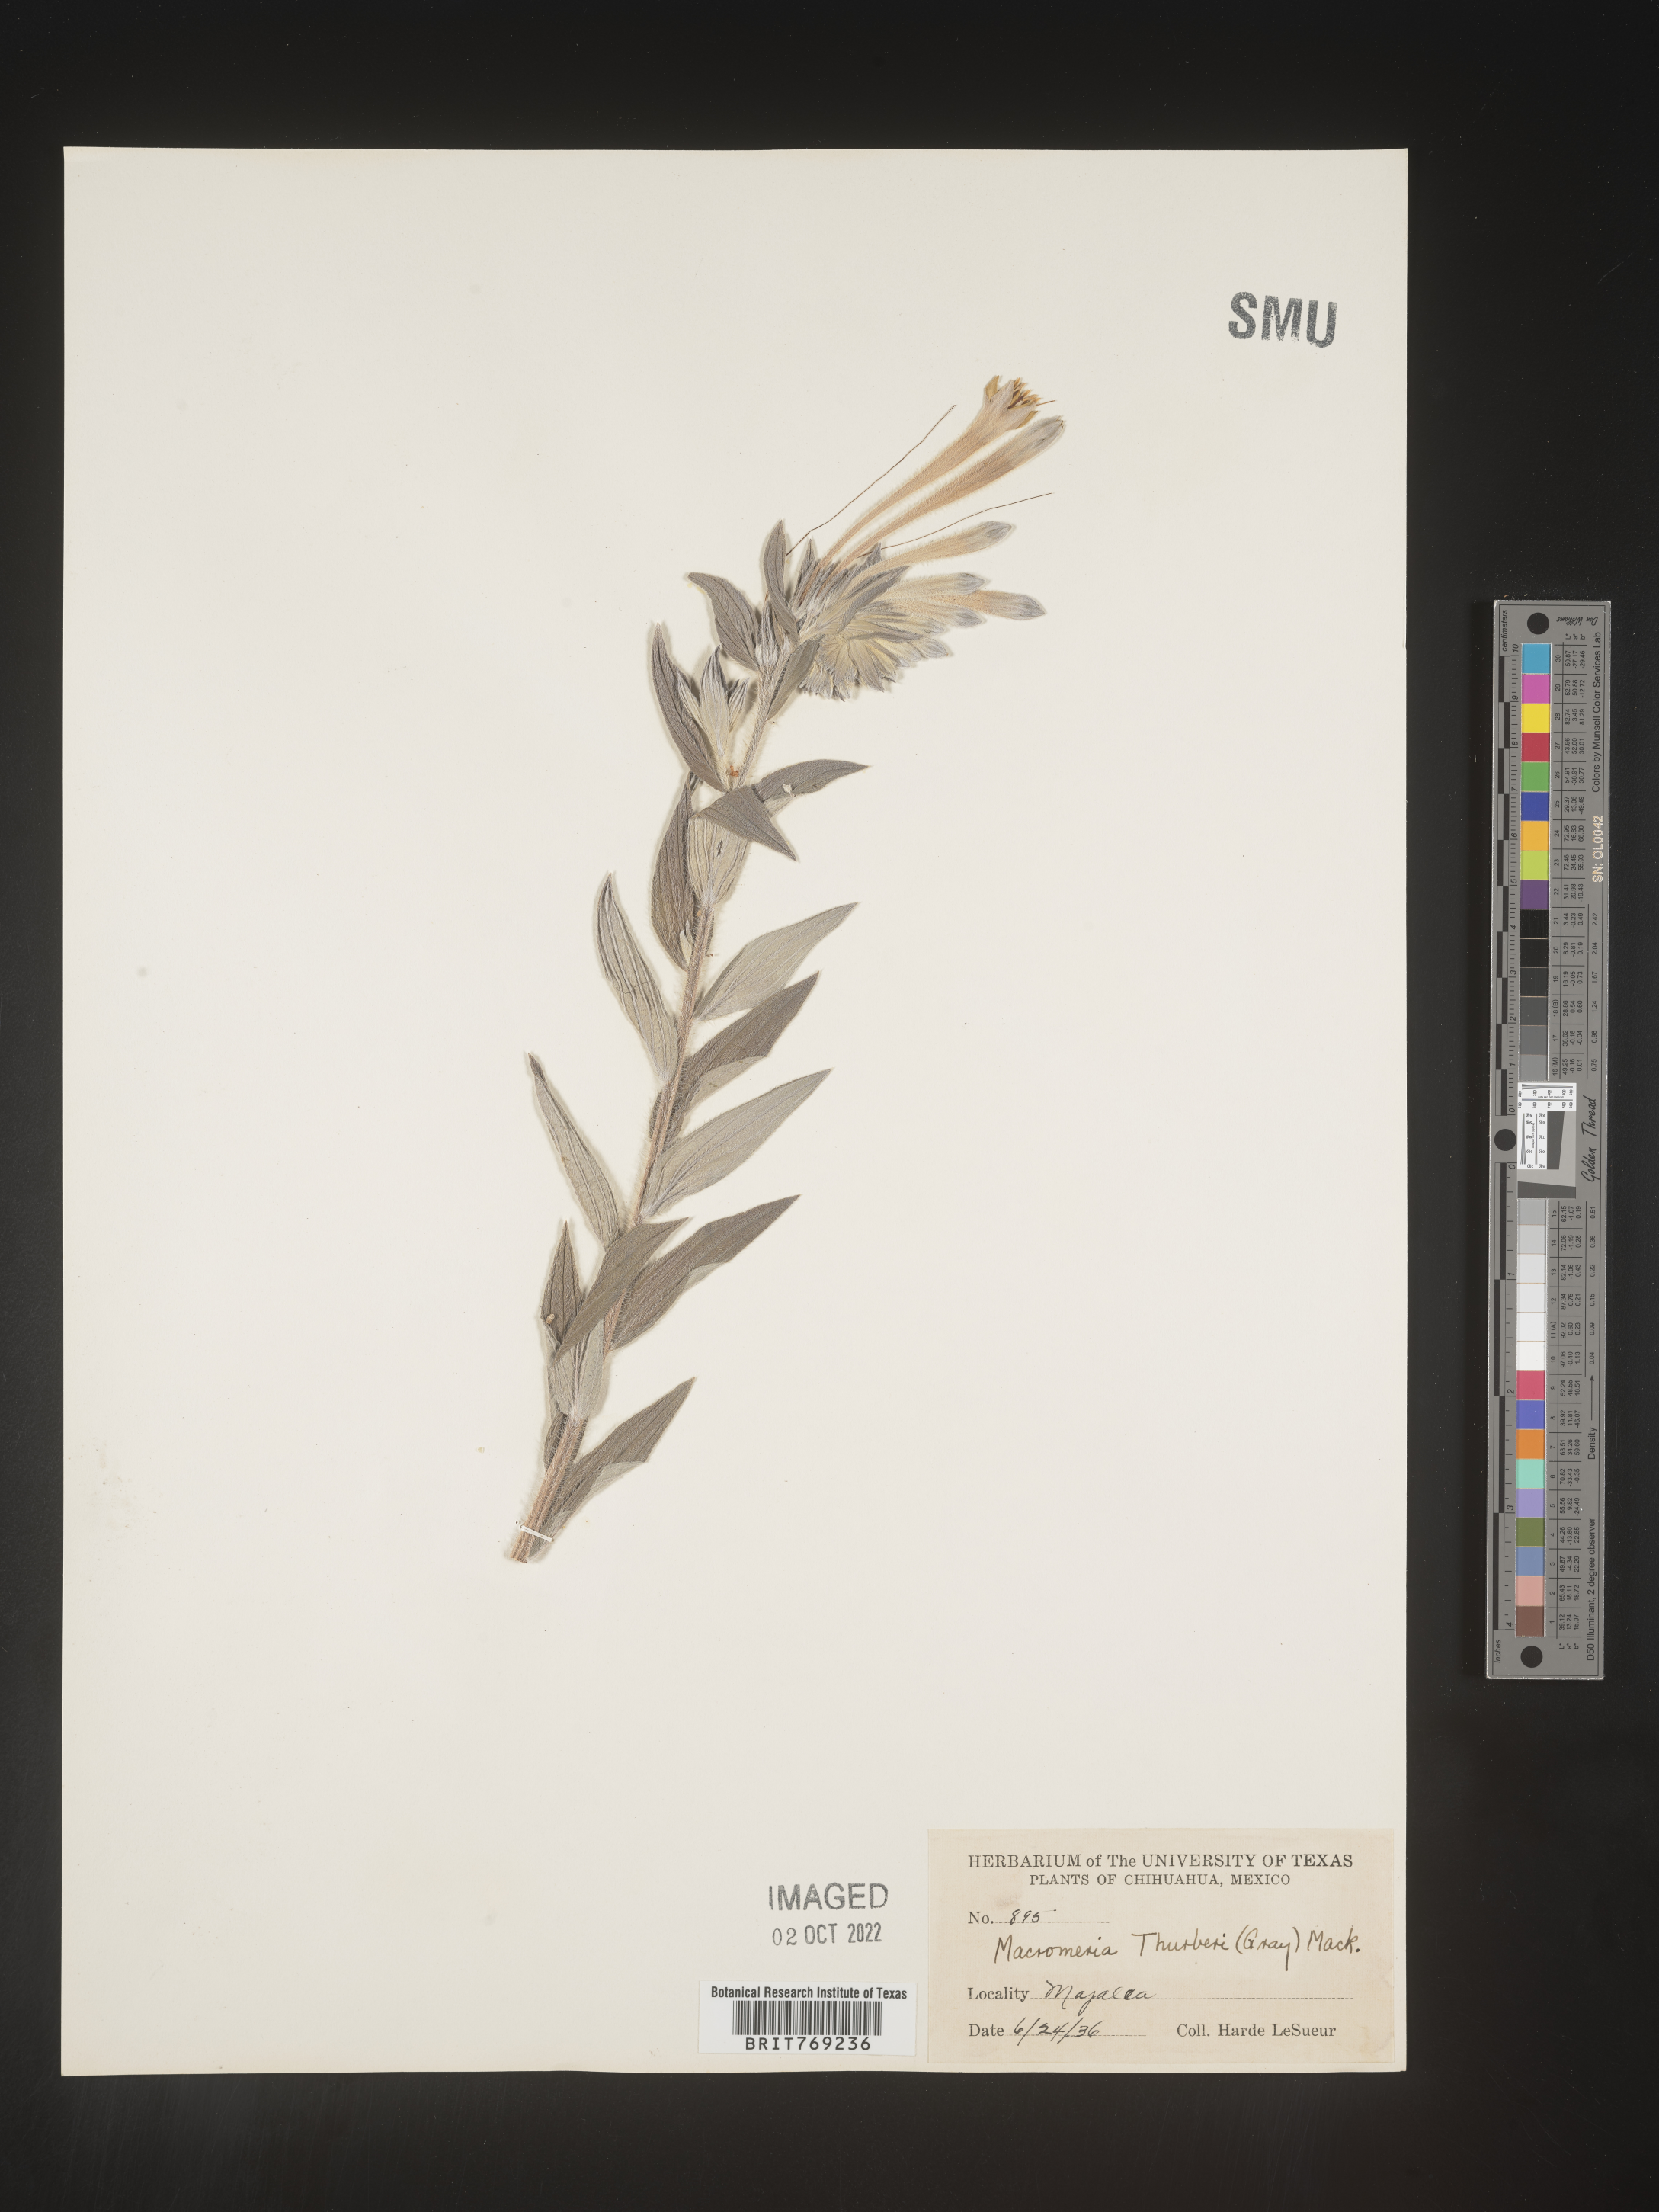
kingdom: Animalia
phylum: Arthropoda
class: Insecta
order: Hymenoptera
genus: Macromeria
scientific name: Macromeria
